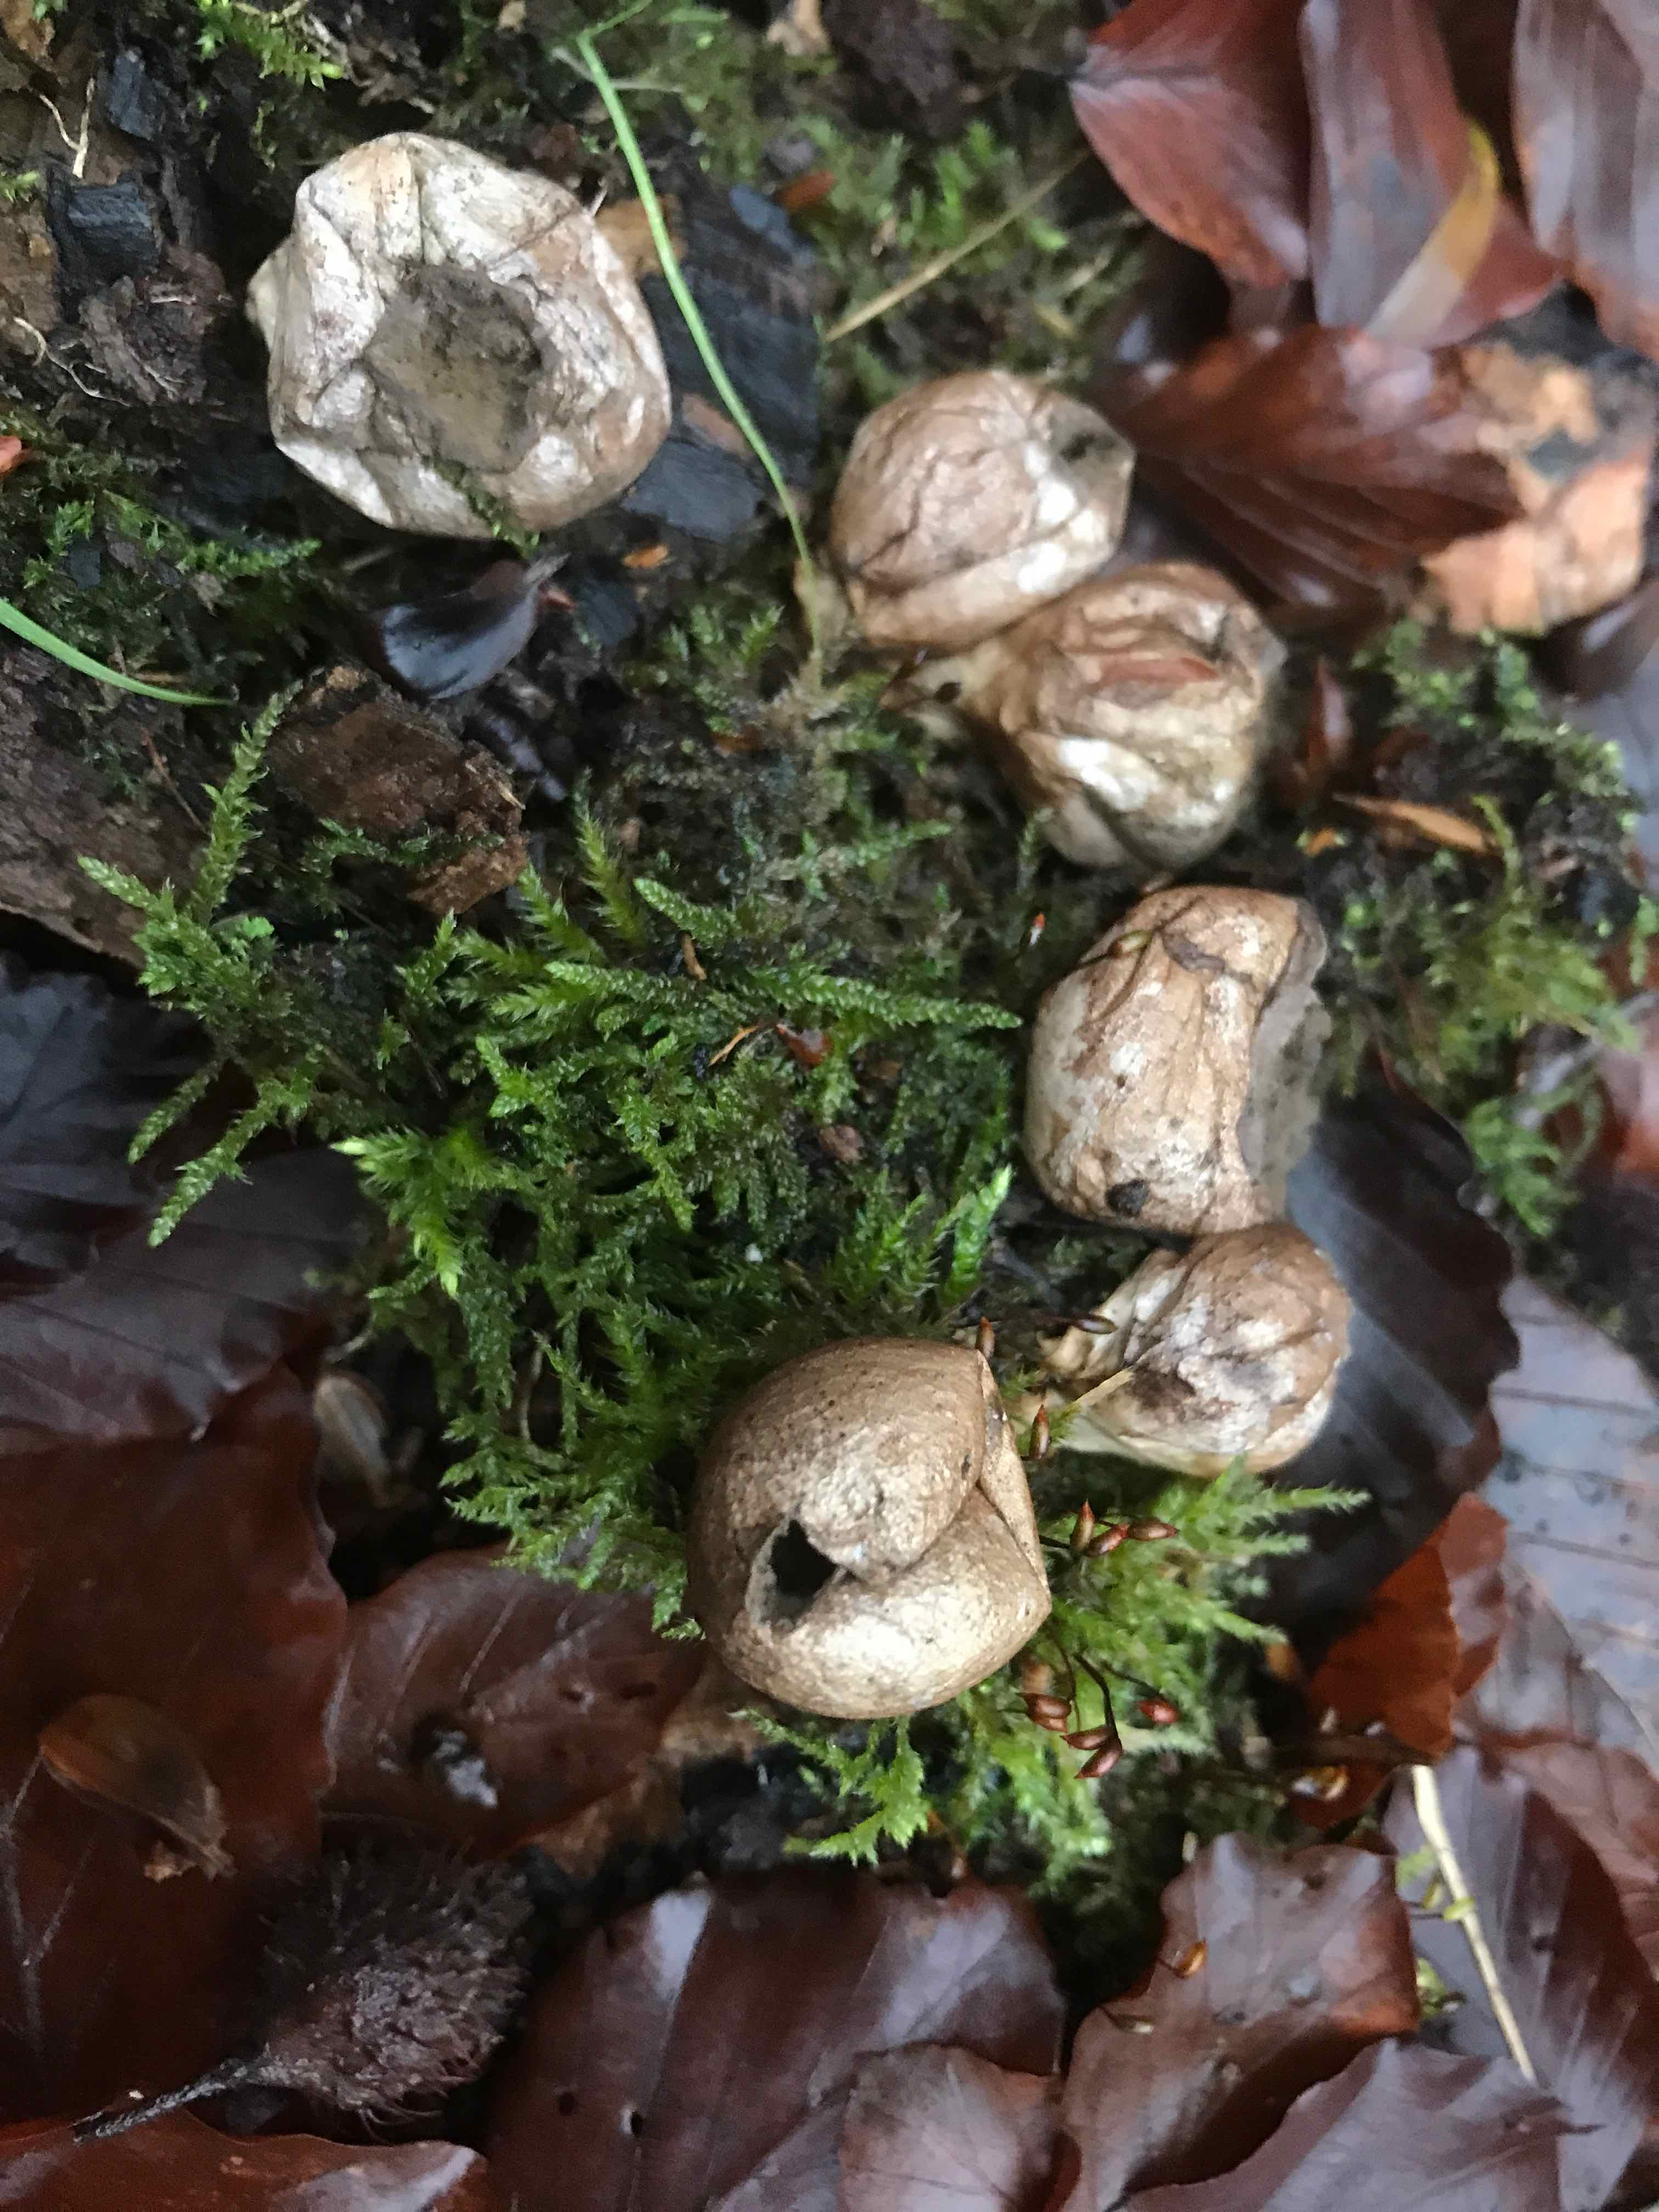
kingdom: Fungi
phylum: Basidiomycota
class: Agaricomycetes
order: Agaricales
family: Lycoperdaceae
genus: Apioperdon
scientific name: Apioperdon pyriforme
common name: pære-støvbold
